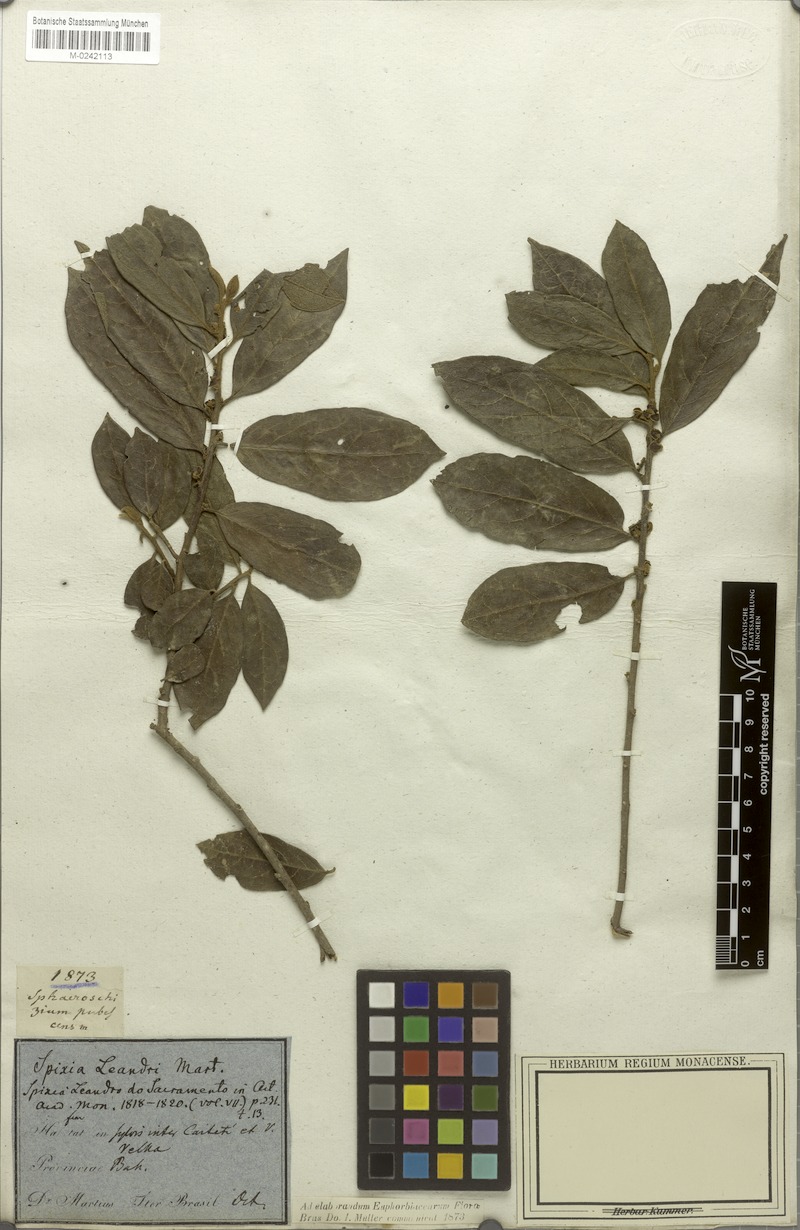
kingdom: Plantae
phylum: Tracheophyta
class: Magnoliopsida
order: Malpighiales
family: Peraceae
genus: Pera
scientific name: Pera distichophylla
